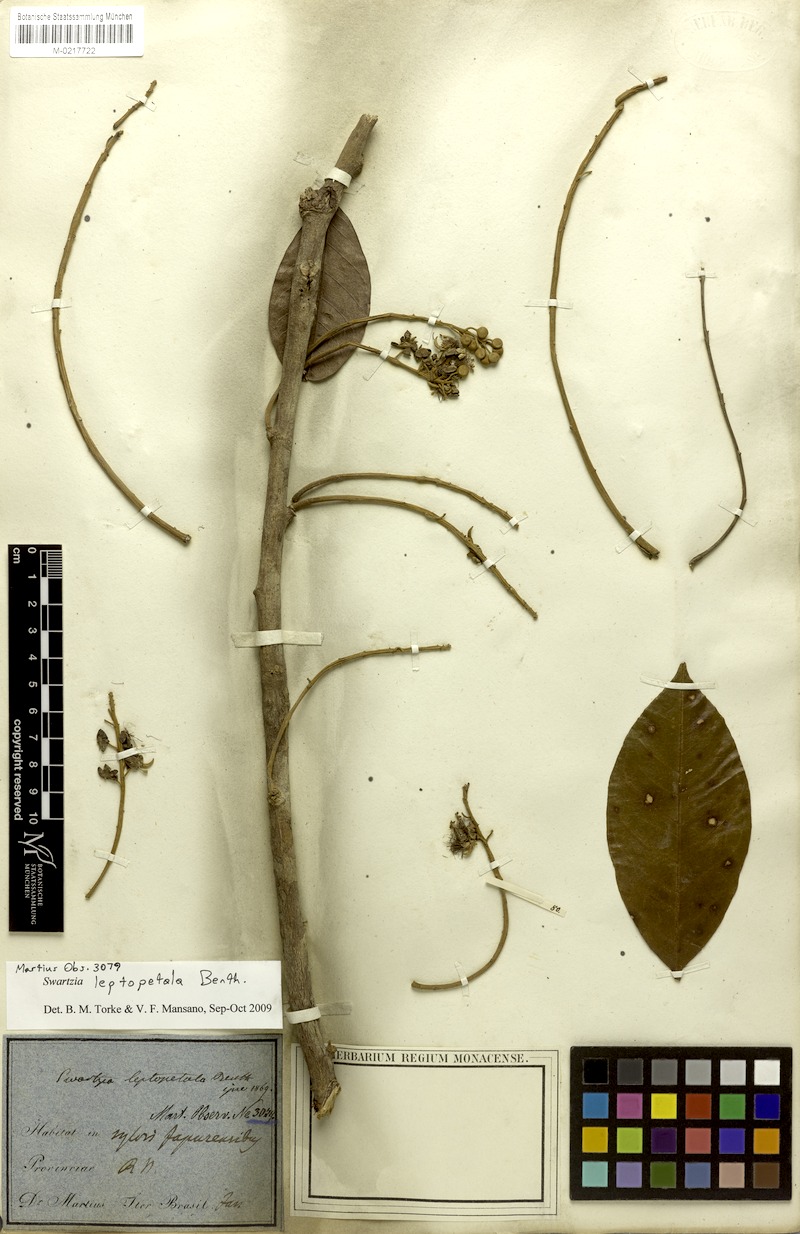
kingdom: Plantae
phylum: Tracheophyta
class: Magnoliopsida
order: Fabales
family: Fabaceae
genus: Swartzia
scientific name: Swartzia leptopetala
